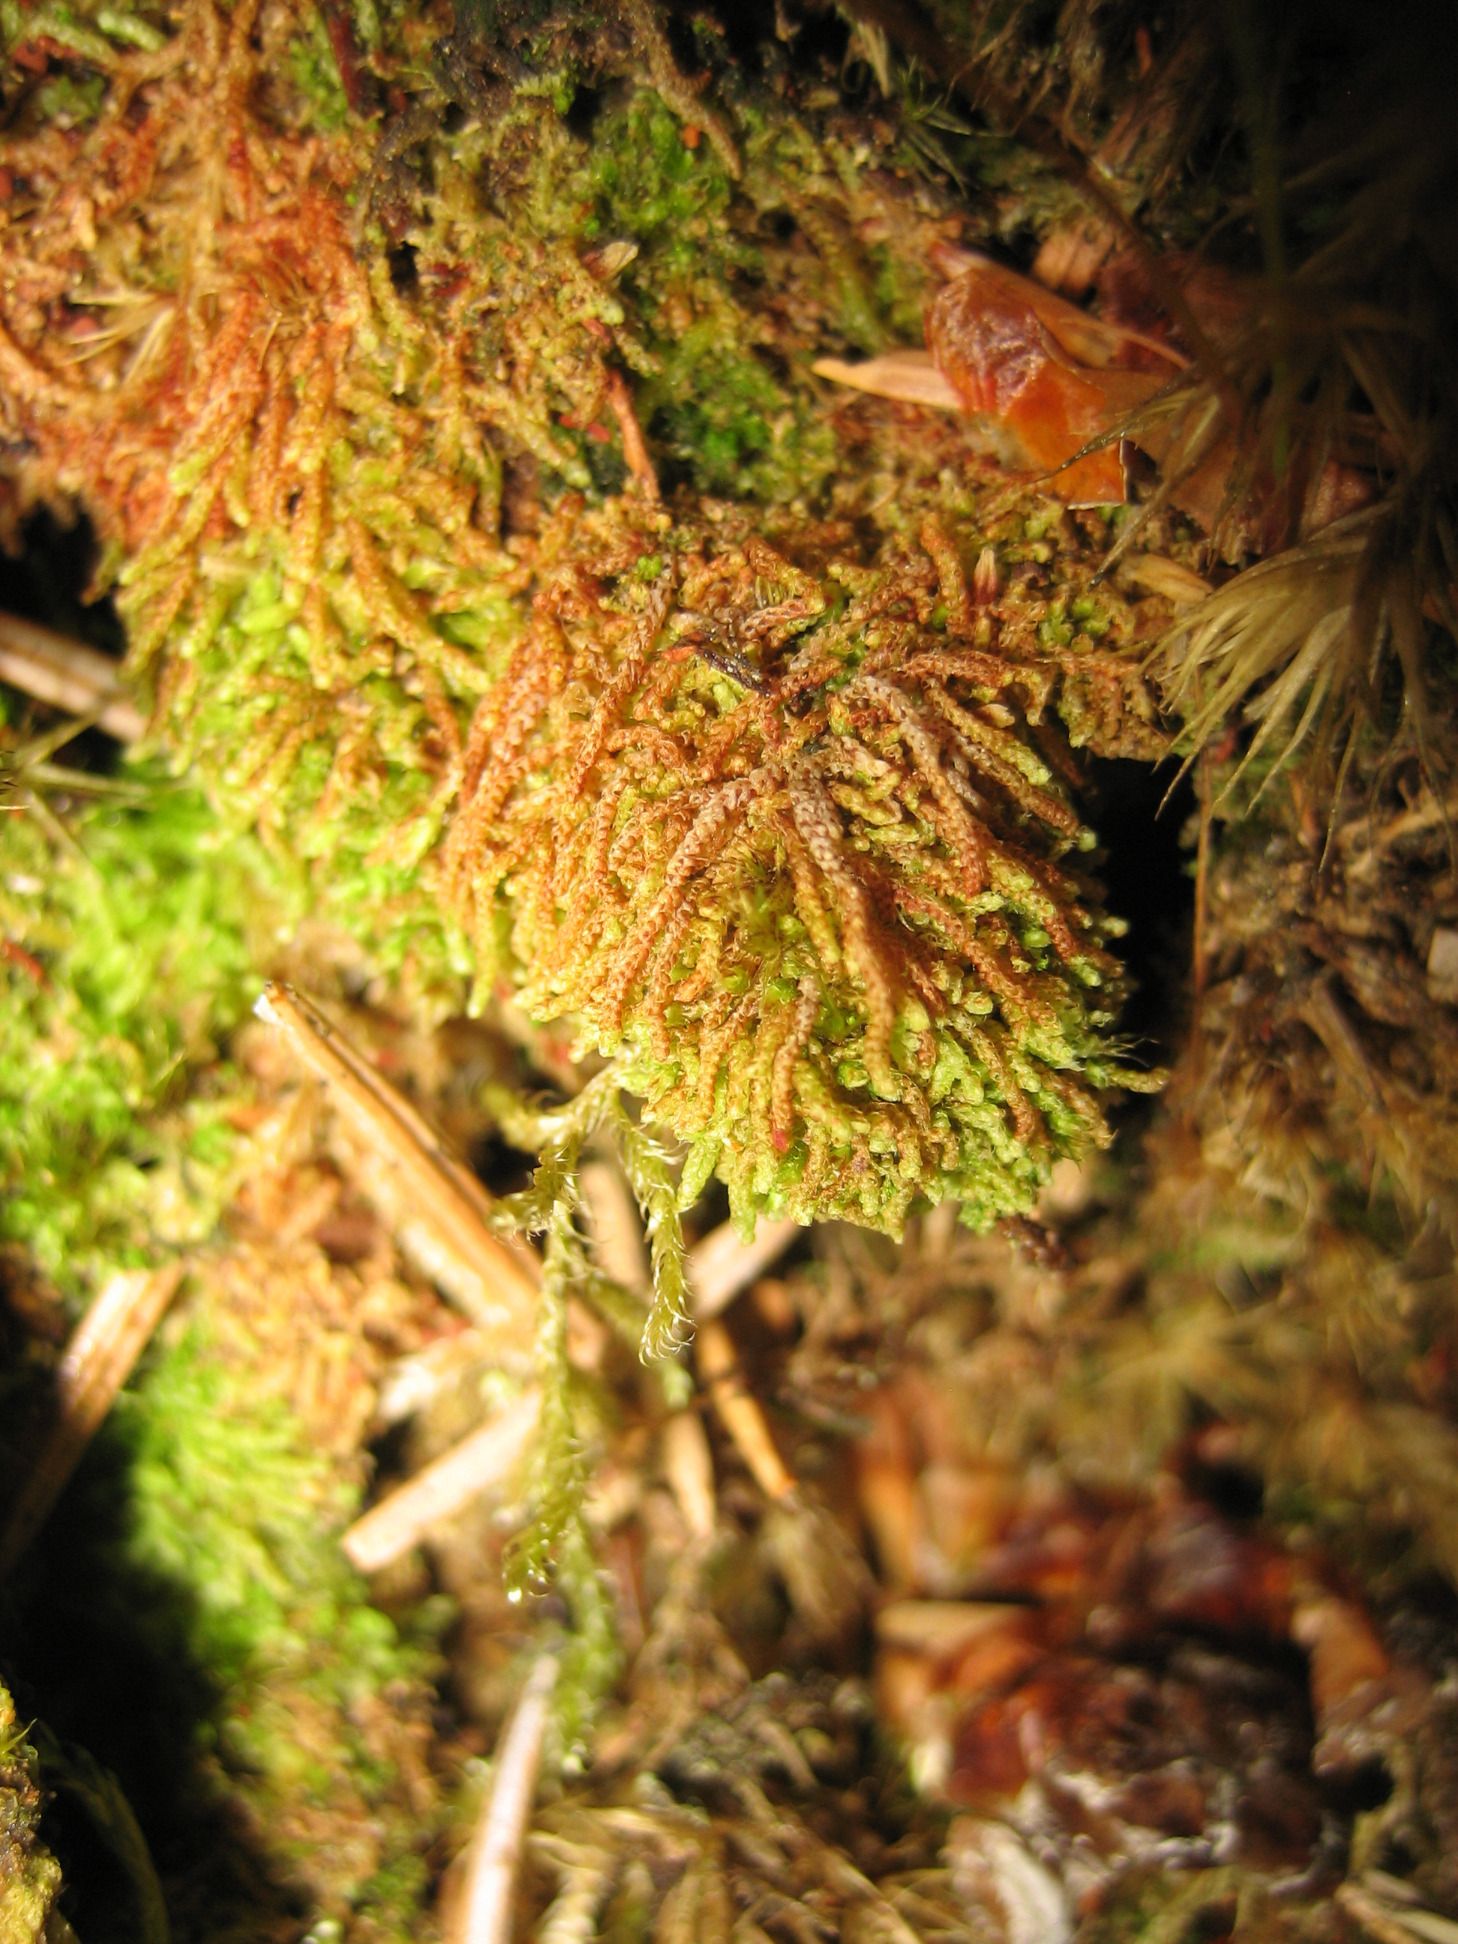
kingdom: Plantae
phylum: Marchantiophyta
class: Jungermanniopsida
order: Jungermanniales
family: Cephaloziaceae
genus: Nowellia
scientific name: Nowellia curvifolia
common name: Krumbladet stødmos
